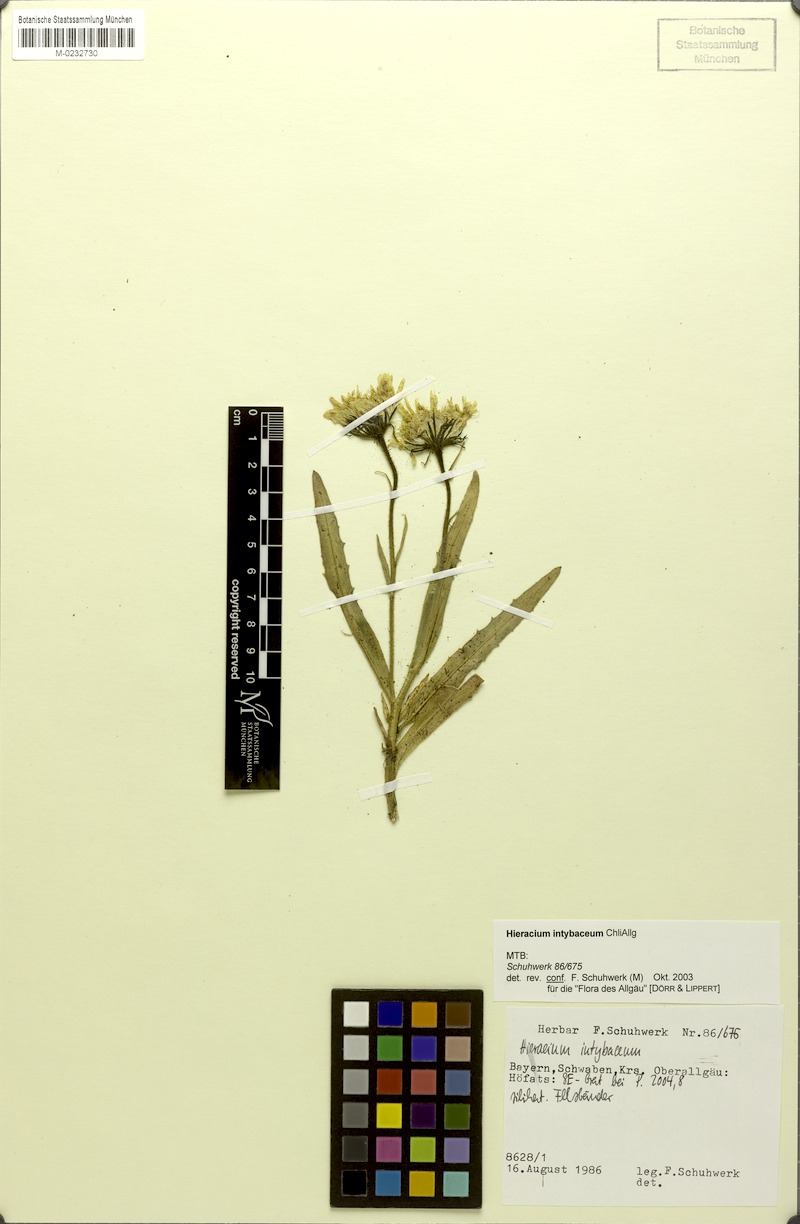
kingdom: Plantae
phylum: Tracheophyta
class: Magnoliopsida
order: Asterales
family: Asteraceae
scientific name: Asteraceae
